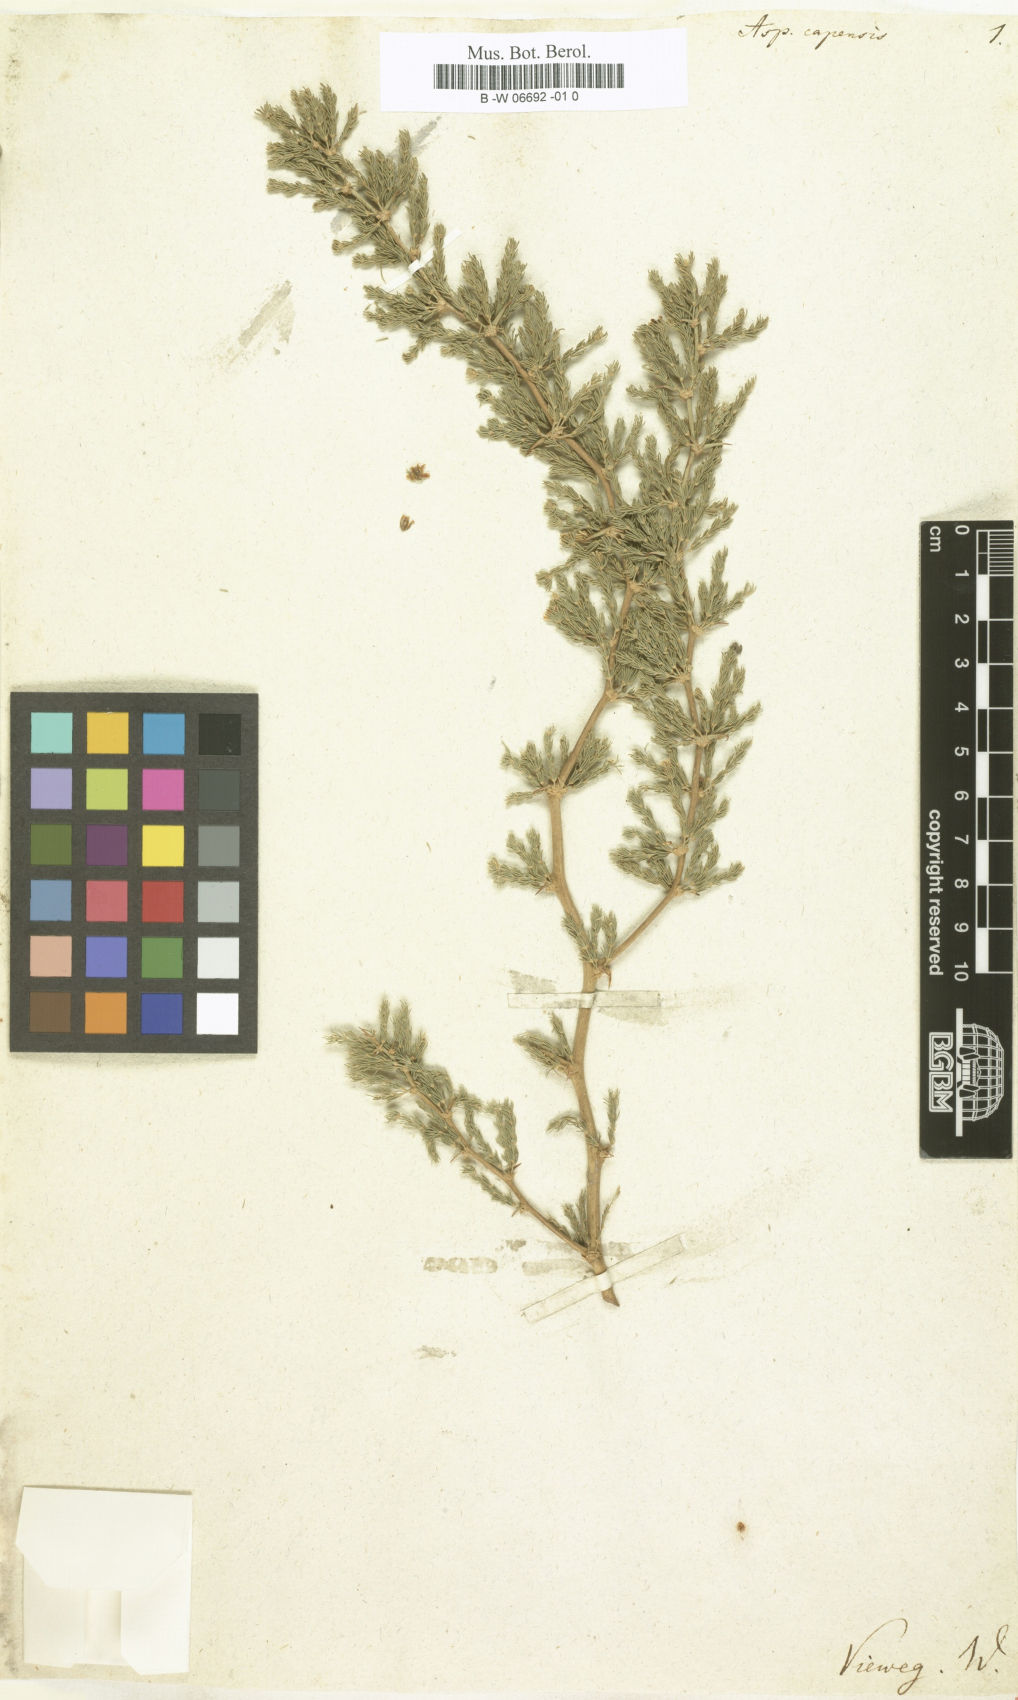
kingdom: Plantae
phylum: Tracheophyta
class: Liliopsida
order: Asparagales
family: Asparagaceae
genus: Asparagus
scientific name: Asparagus capensis
